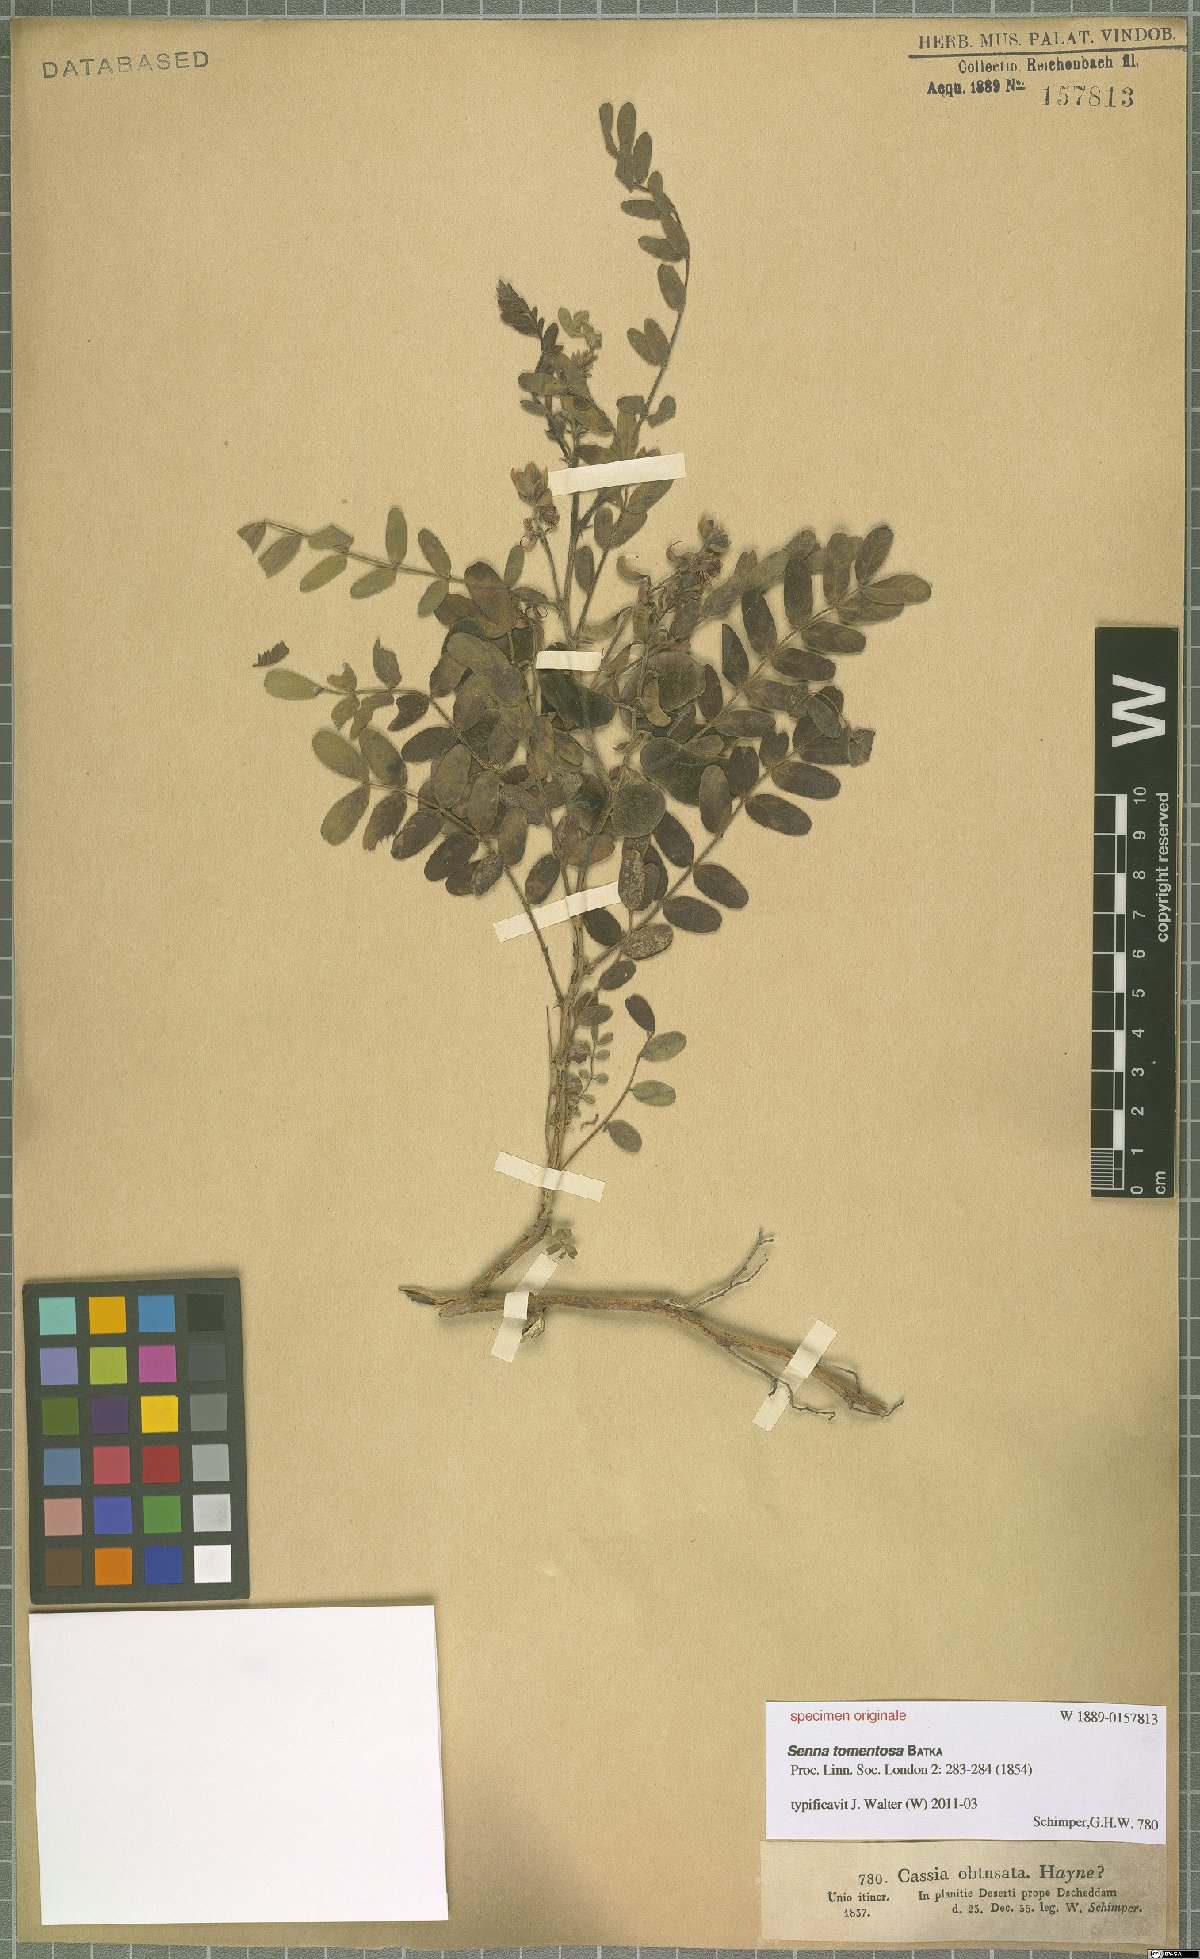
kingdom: Plantae
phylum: Tracheophyta
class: Magnoliopsida
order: Fabales
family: Fabaceae
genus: Senna
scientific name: Senna holosericea
